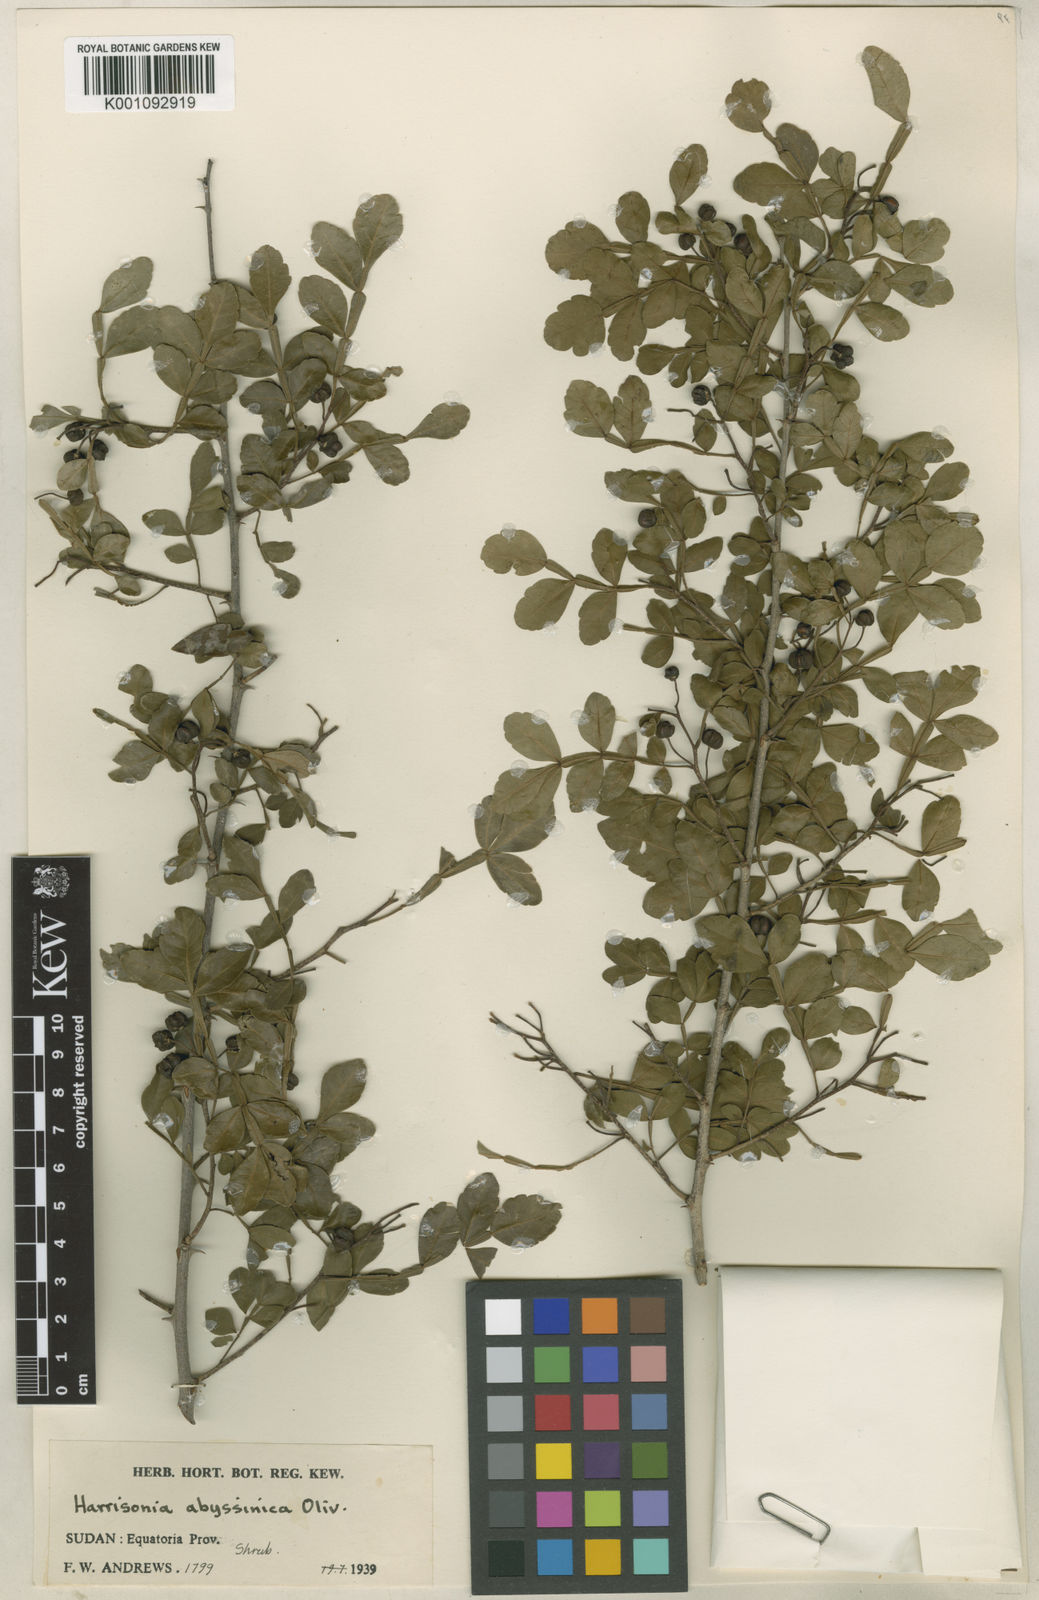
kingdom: Plantae
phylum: Tracheophyta
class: Magnoliopsida
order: Sapindales
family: Rutaceae
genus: Harrisonia
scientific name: Harrisonia abyssinica
